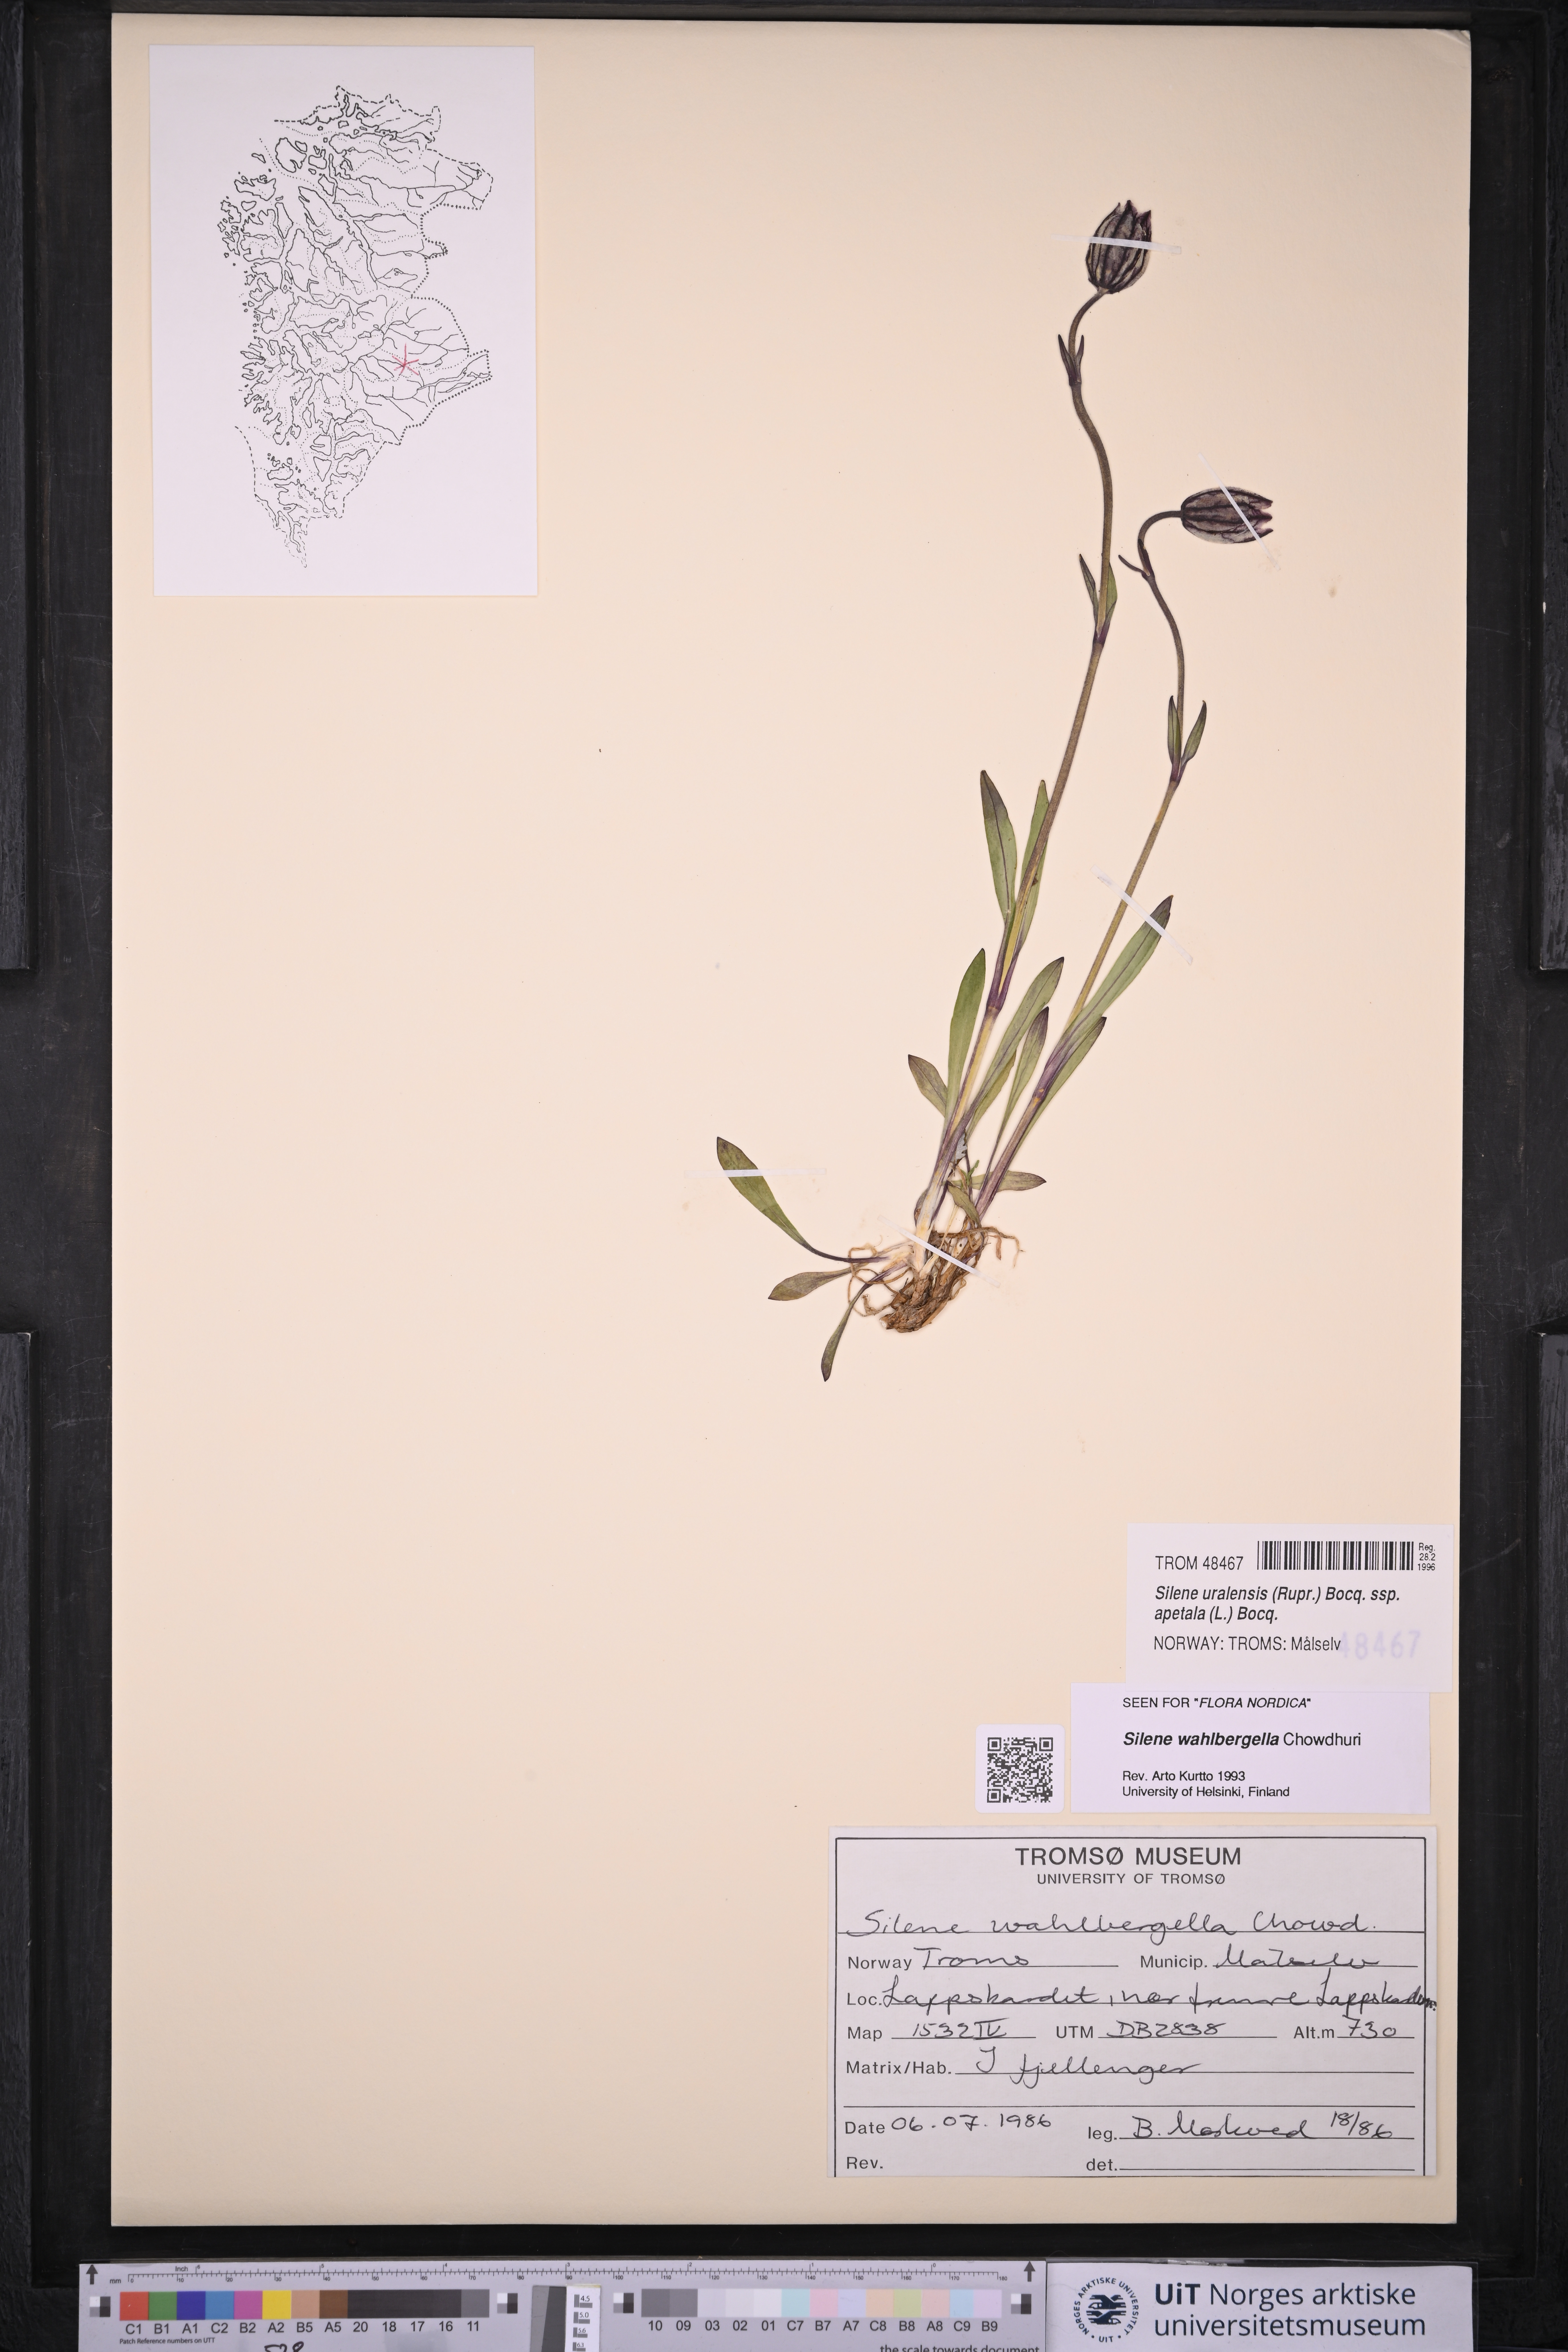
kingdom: Plantae
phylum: Tracheophyta
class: Magnoliopsida
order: Caryophyllales
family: Caryophyllaceae
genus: Silene
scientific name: Silene wahlbergella
